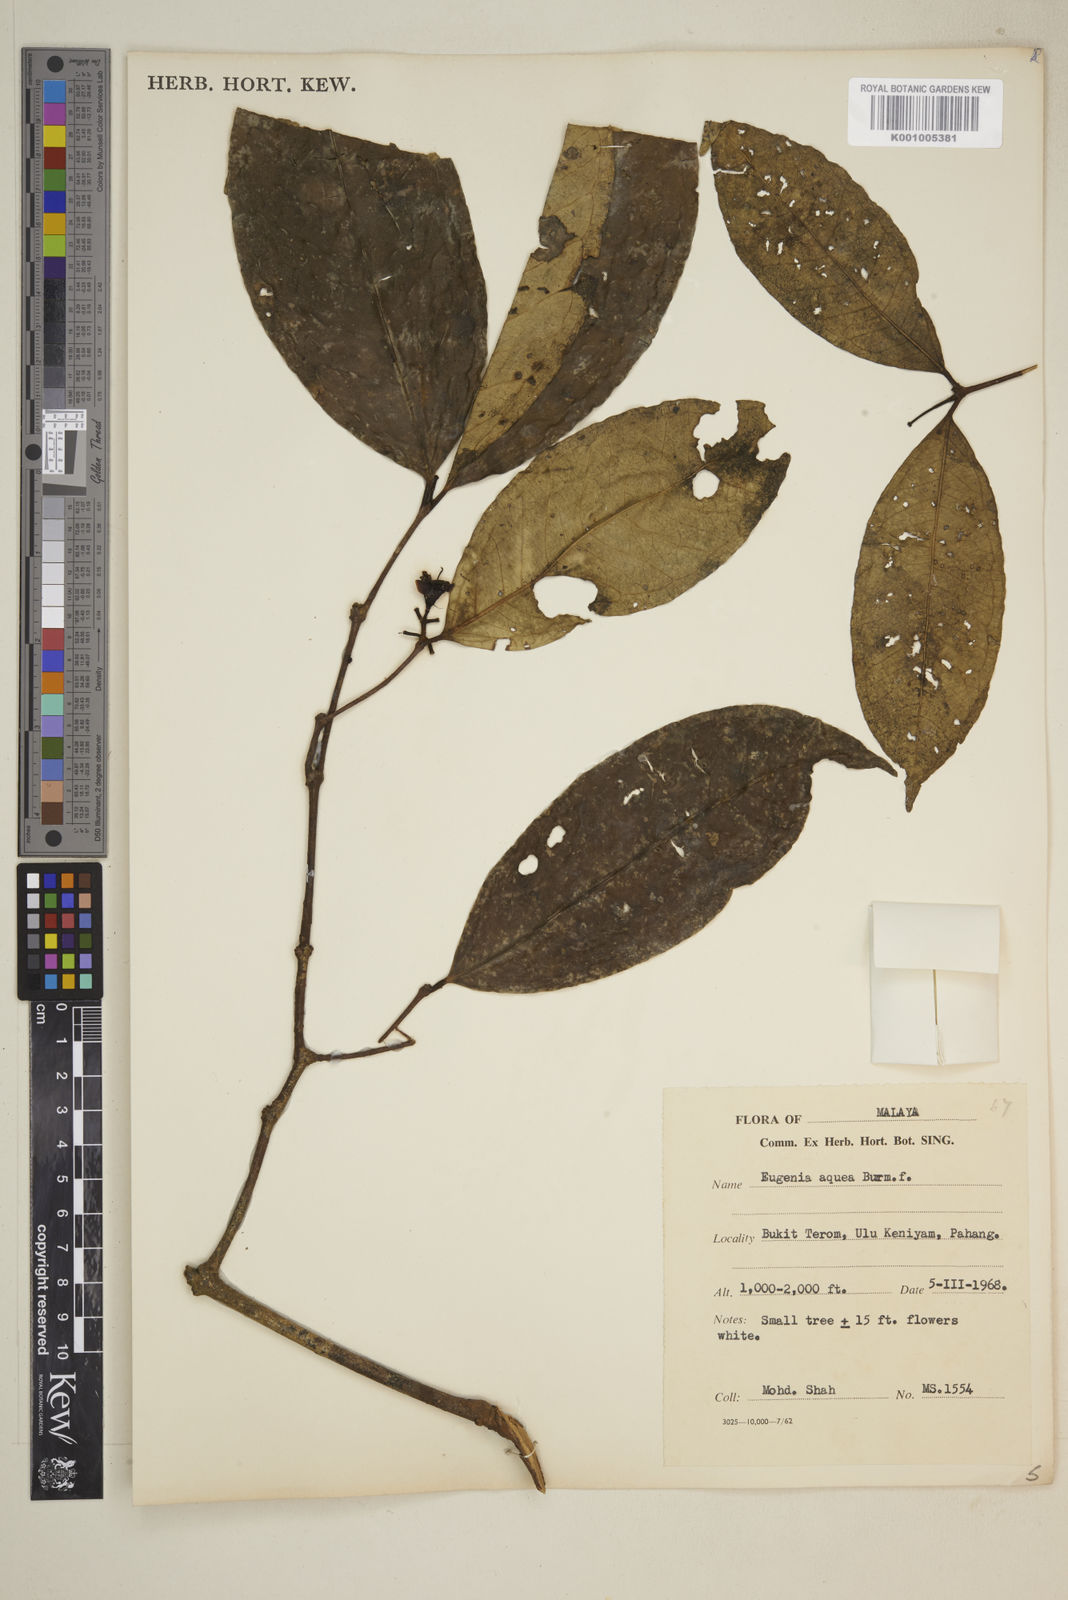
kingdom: Plantae
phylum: Tracheophyta
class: Magnoliopsida
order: Myrtales
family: Myrtaceae
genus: Syzygium
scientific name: Syzygium aqueum
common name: Water-apple
